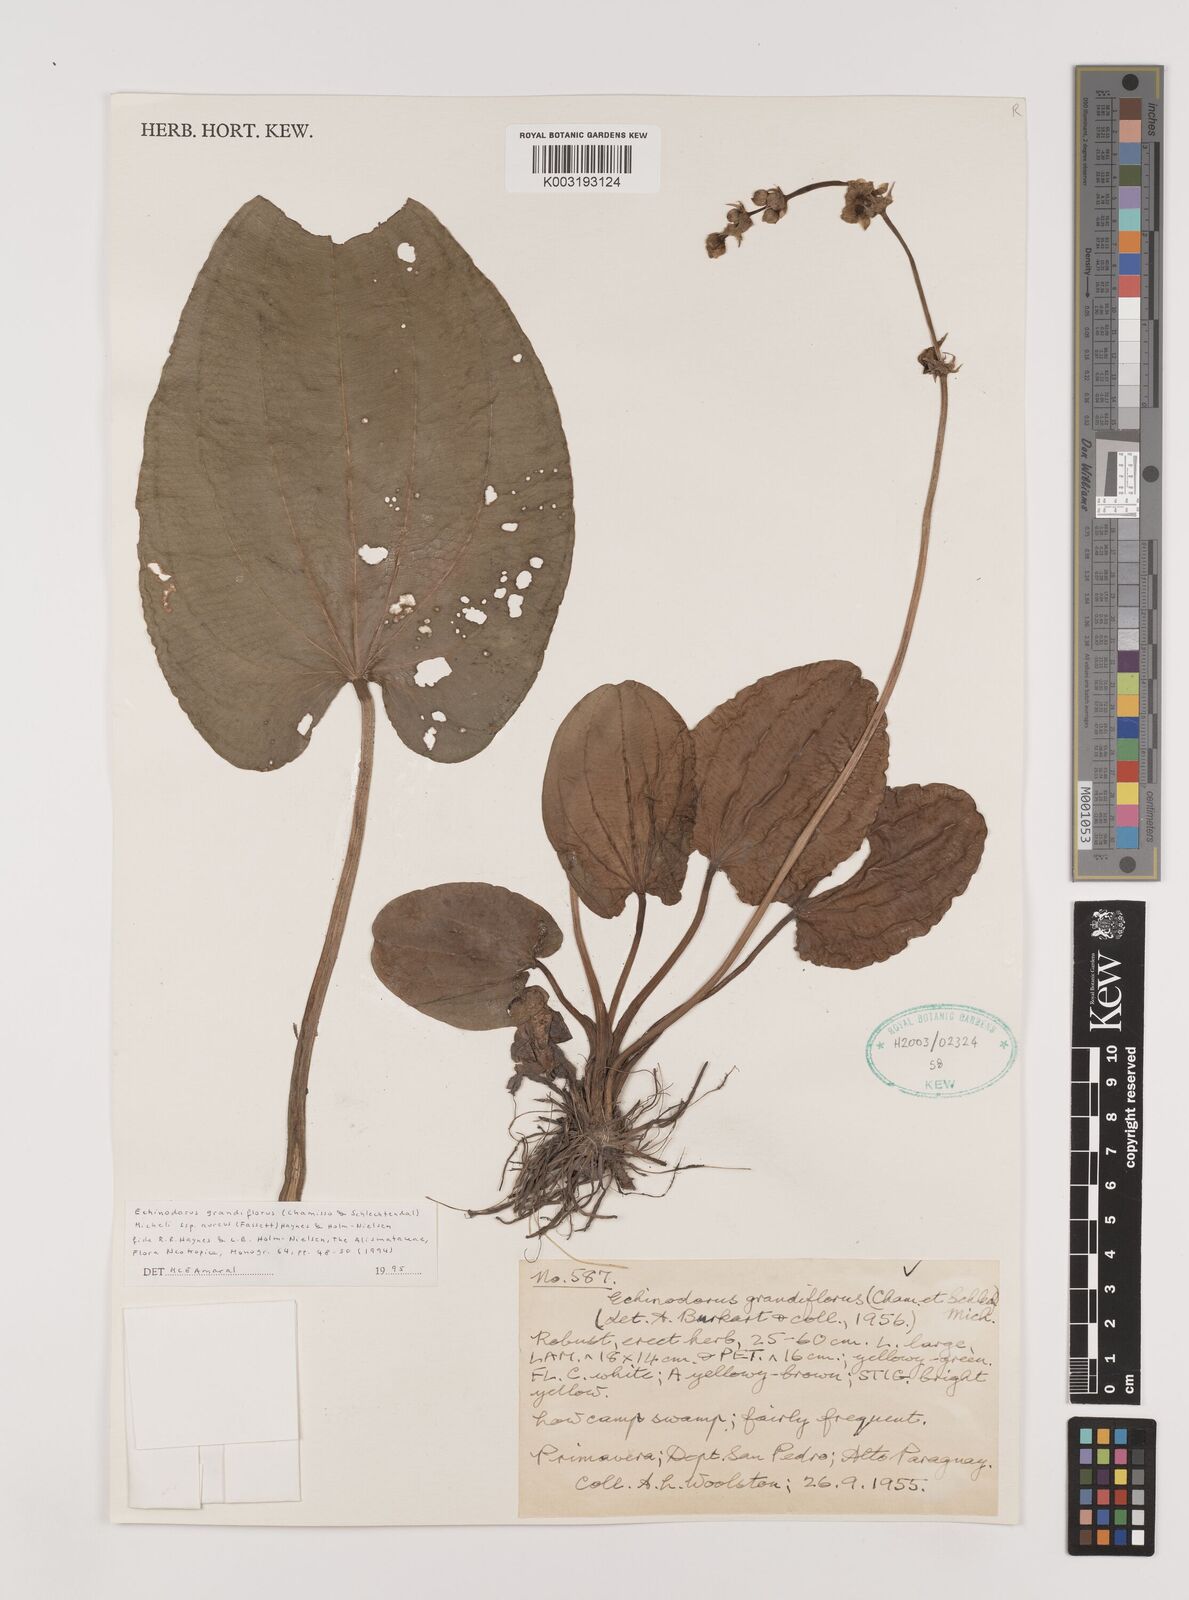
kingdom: Plantae
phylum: Tracheophyta
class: Liliopsida
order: Alismatales
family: Alismataceae
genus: Aquarius
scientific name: Aquarius floribundus
